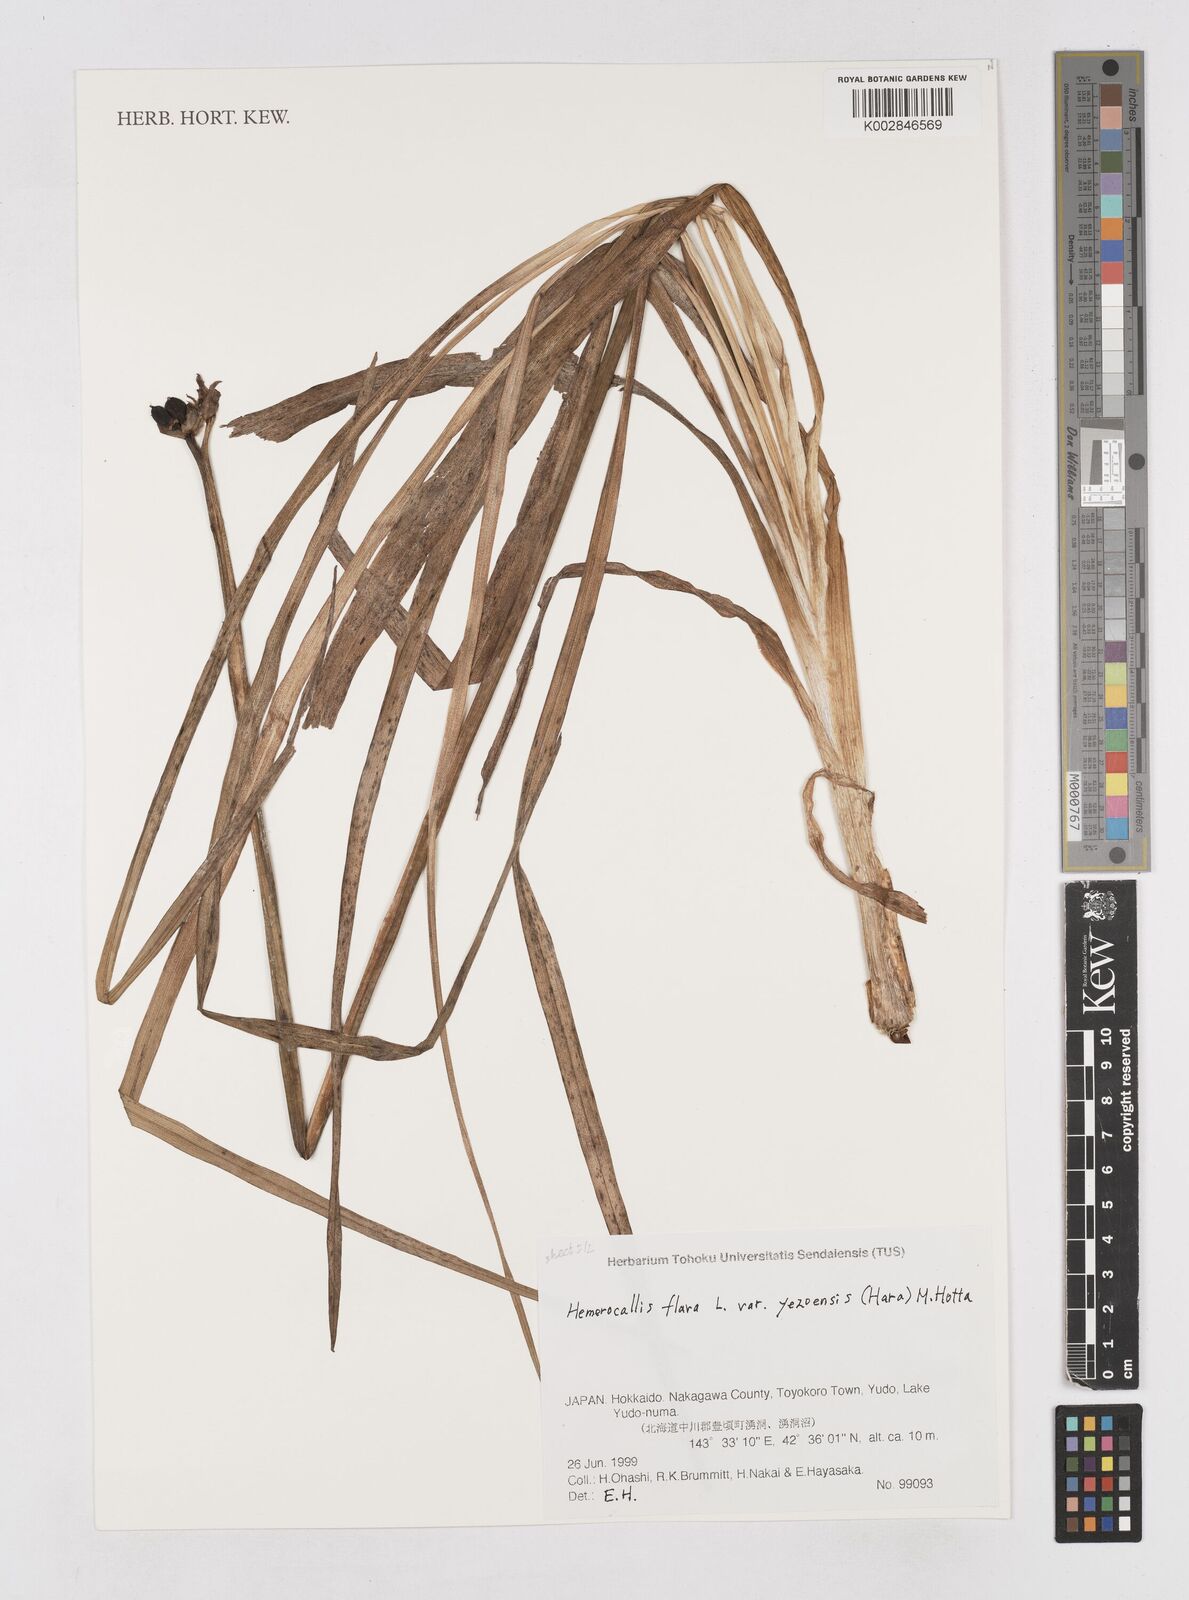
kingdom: Plantae
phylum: Tracheophyta
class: Liliopsida
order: Asparagales
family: Asphodelaceae
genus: Hemerocallis
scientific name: Hemerocallis lilioasphodelus
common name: Yellow day-lily
